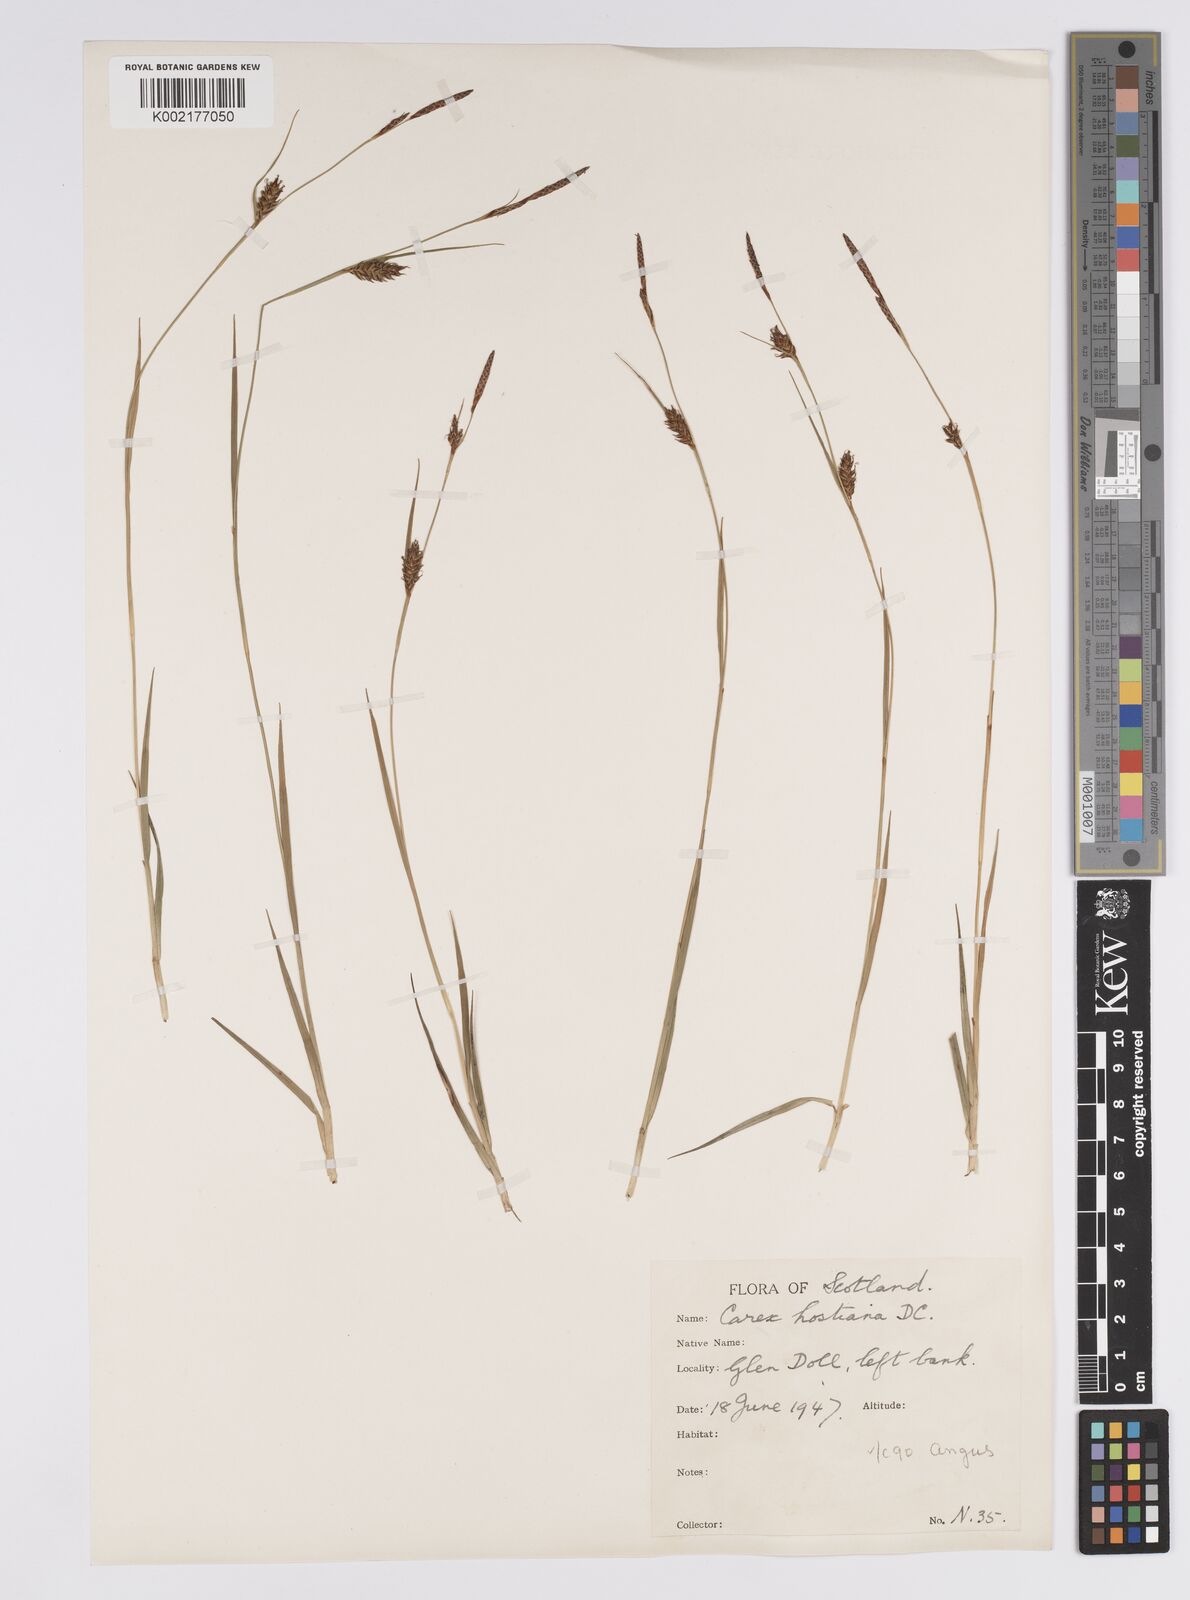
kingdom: Plantae
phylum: Tracheophyta
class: Liliopsida
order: Poales
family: Cyperaceae
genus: Carex
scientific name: Carex hostiana
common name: Tawny sedge
